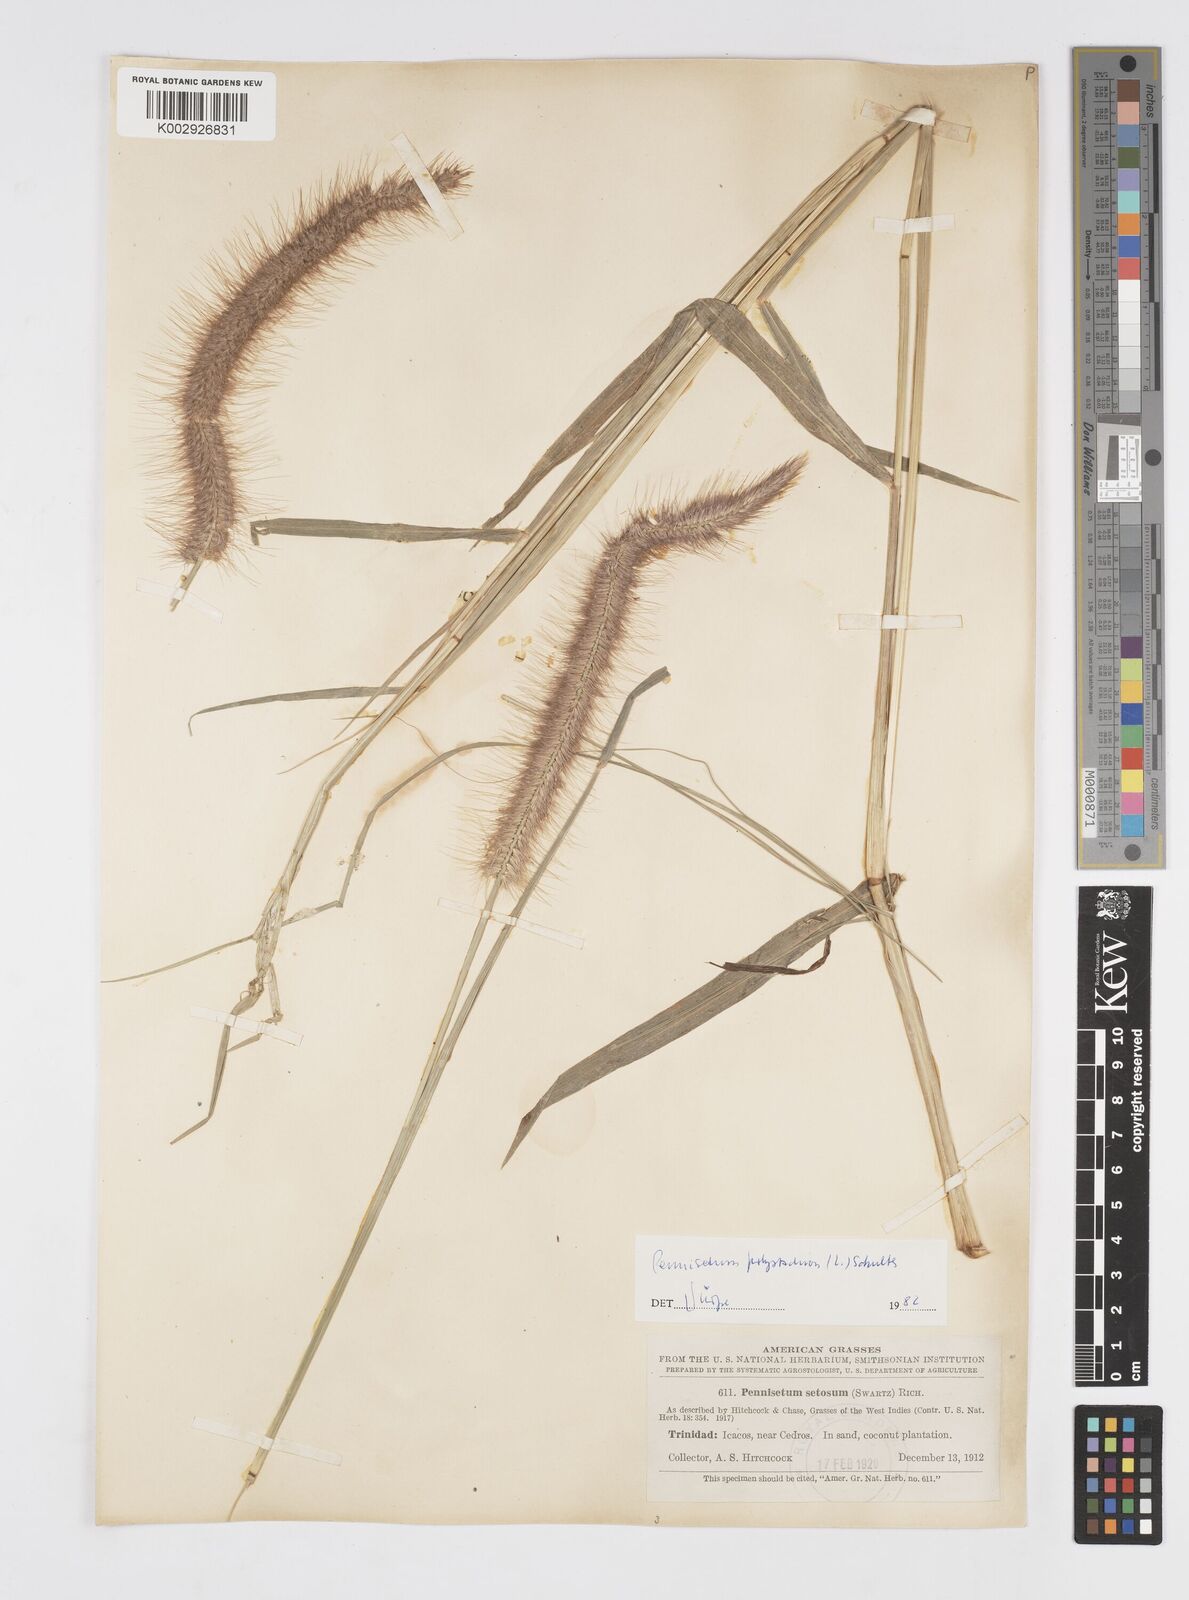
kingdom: Plantae
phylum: Tracheophyta
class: Liliopsida
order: Poales
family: Poaceae
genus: Cenchrus
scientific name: Cenchrus setosus
